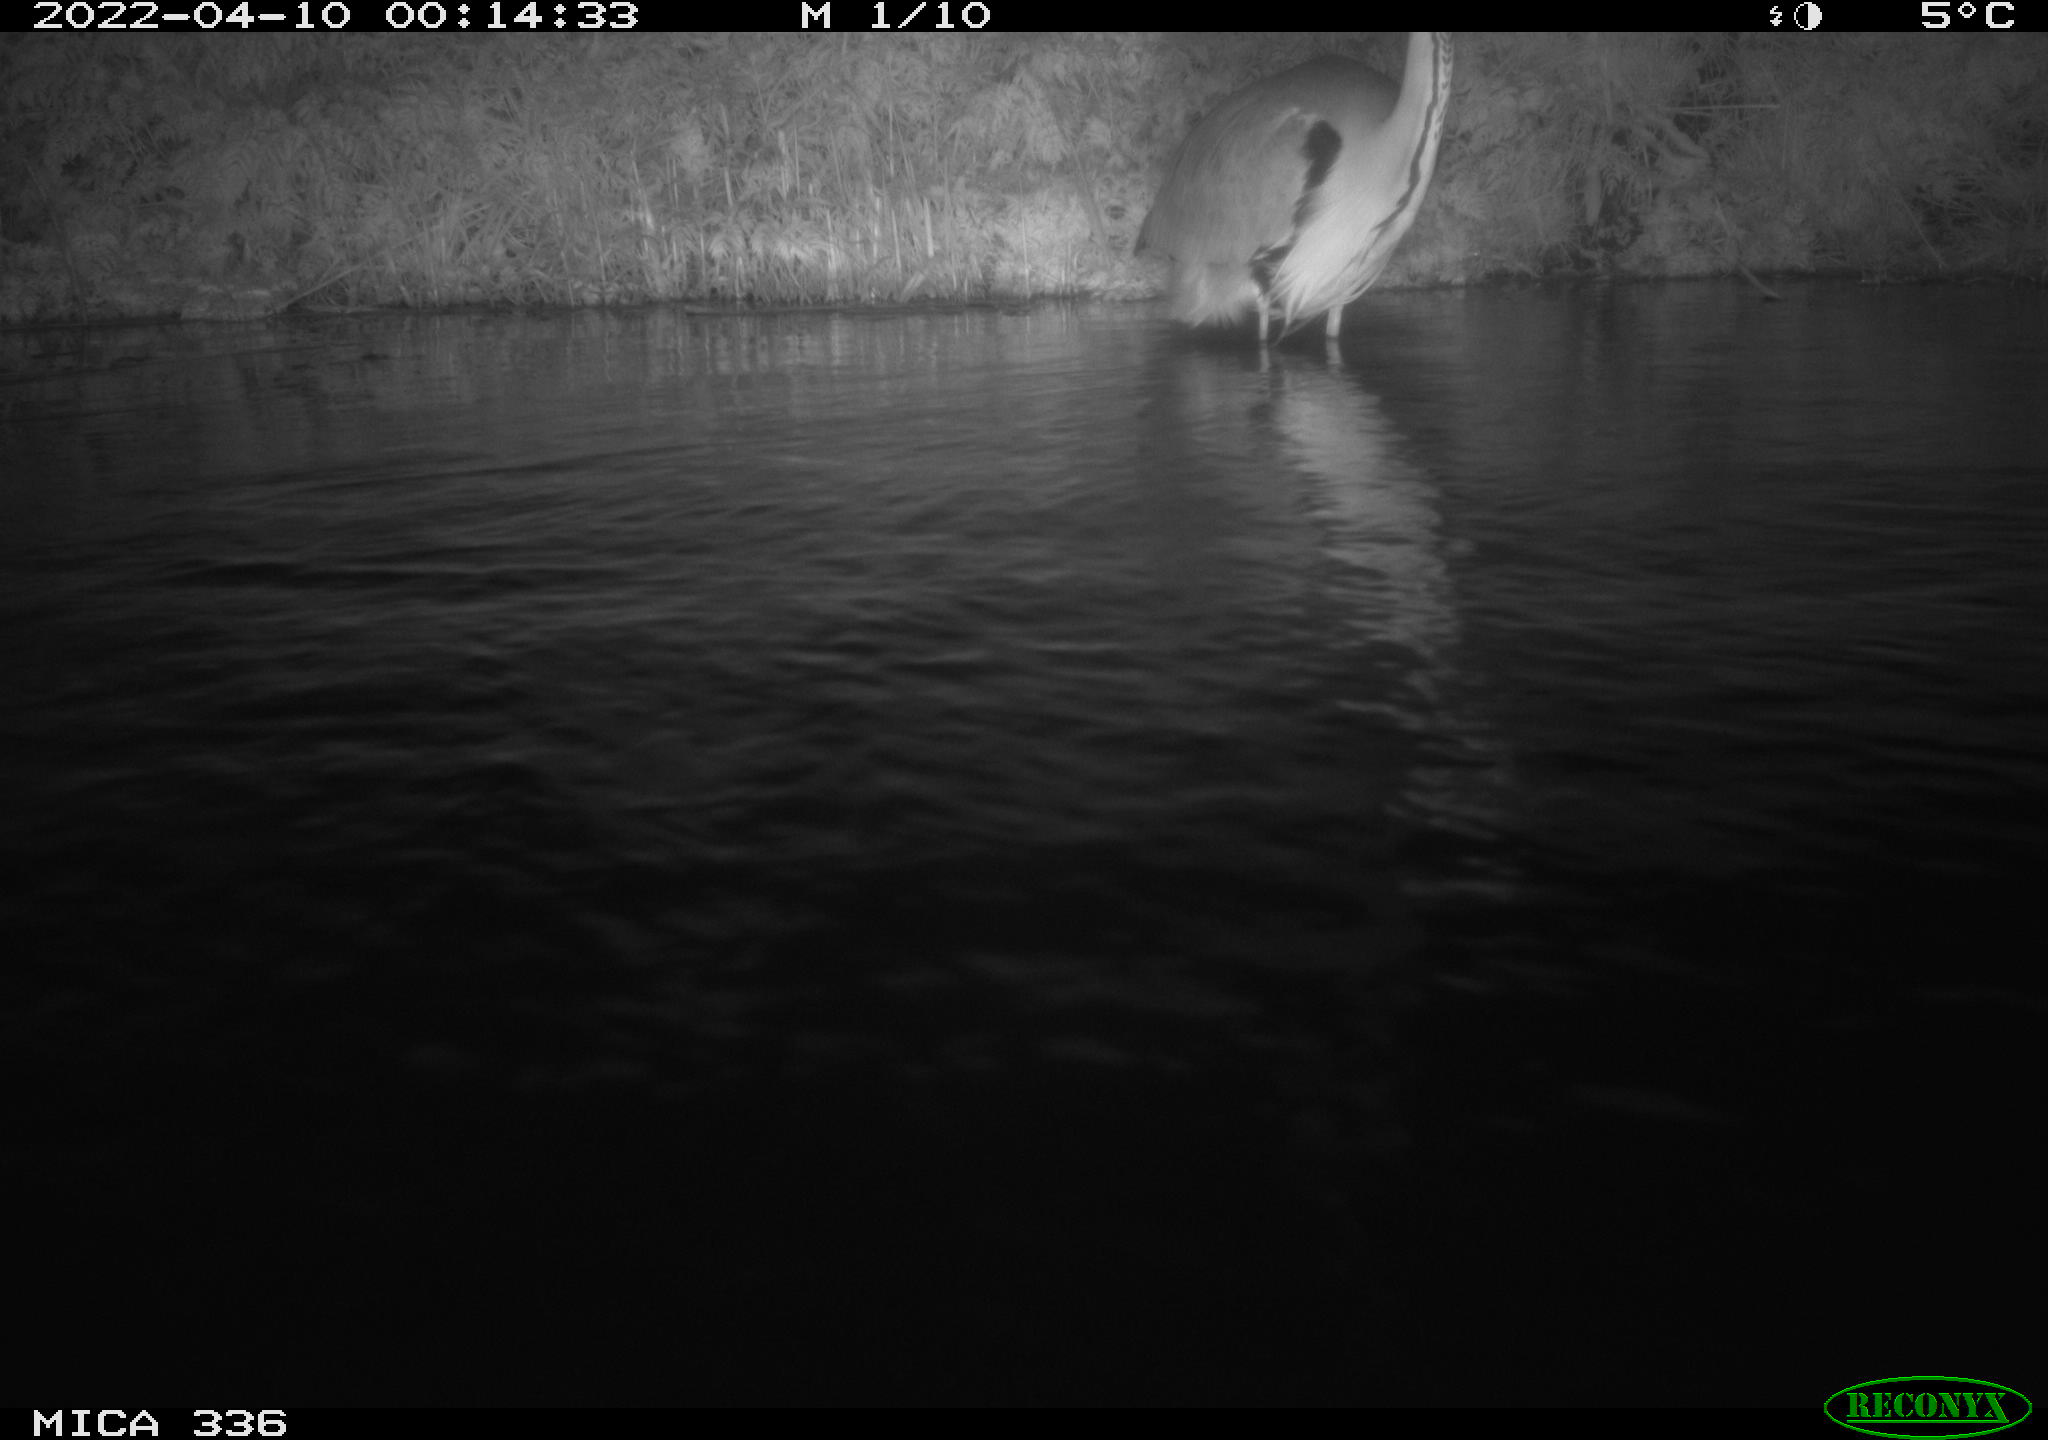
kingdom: Animalia
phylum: Chordata
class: Aves
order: Pelecaniformes
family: Ardeidae
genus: Ardea
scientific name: Ardea cinerea
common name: Grey heron
